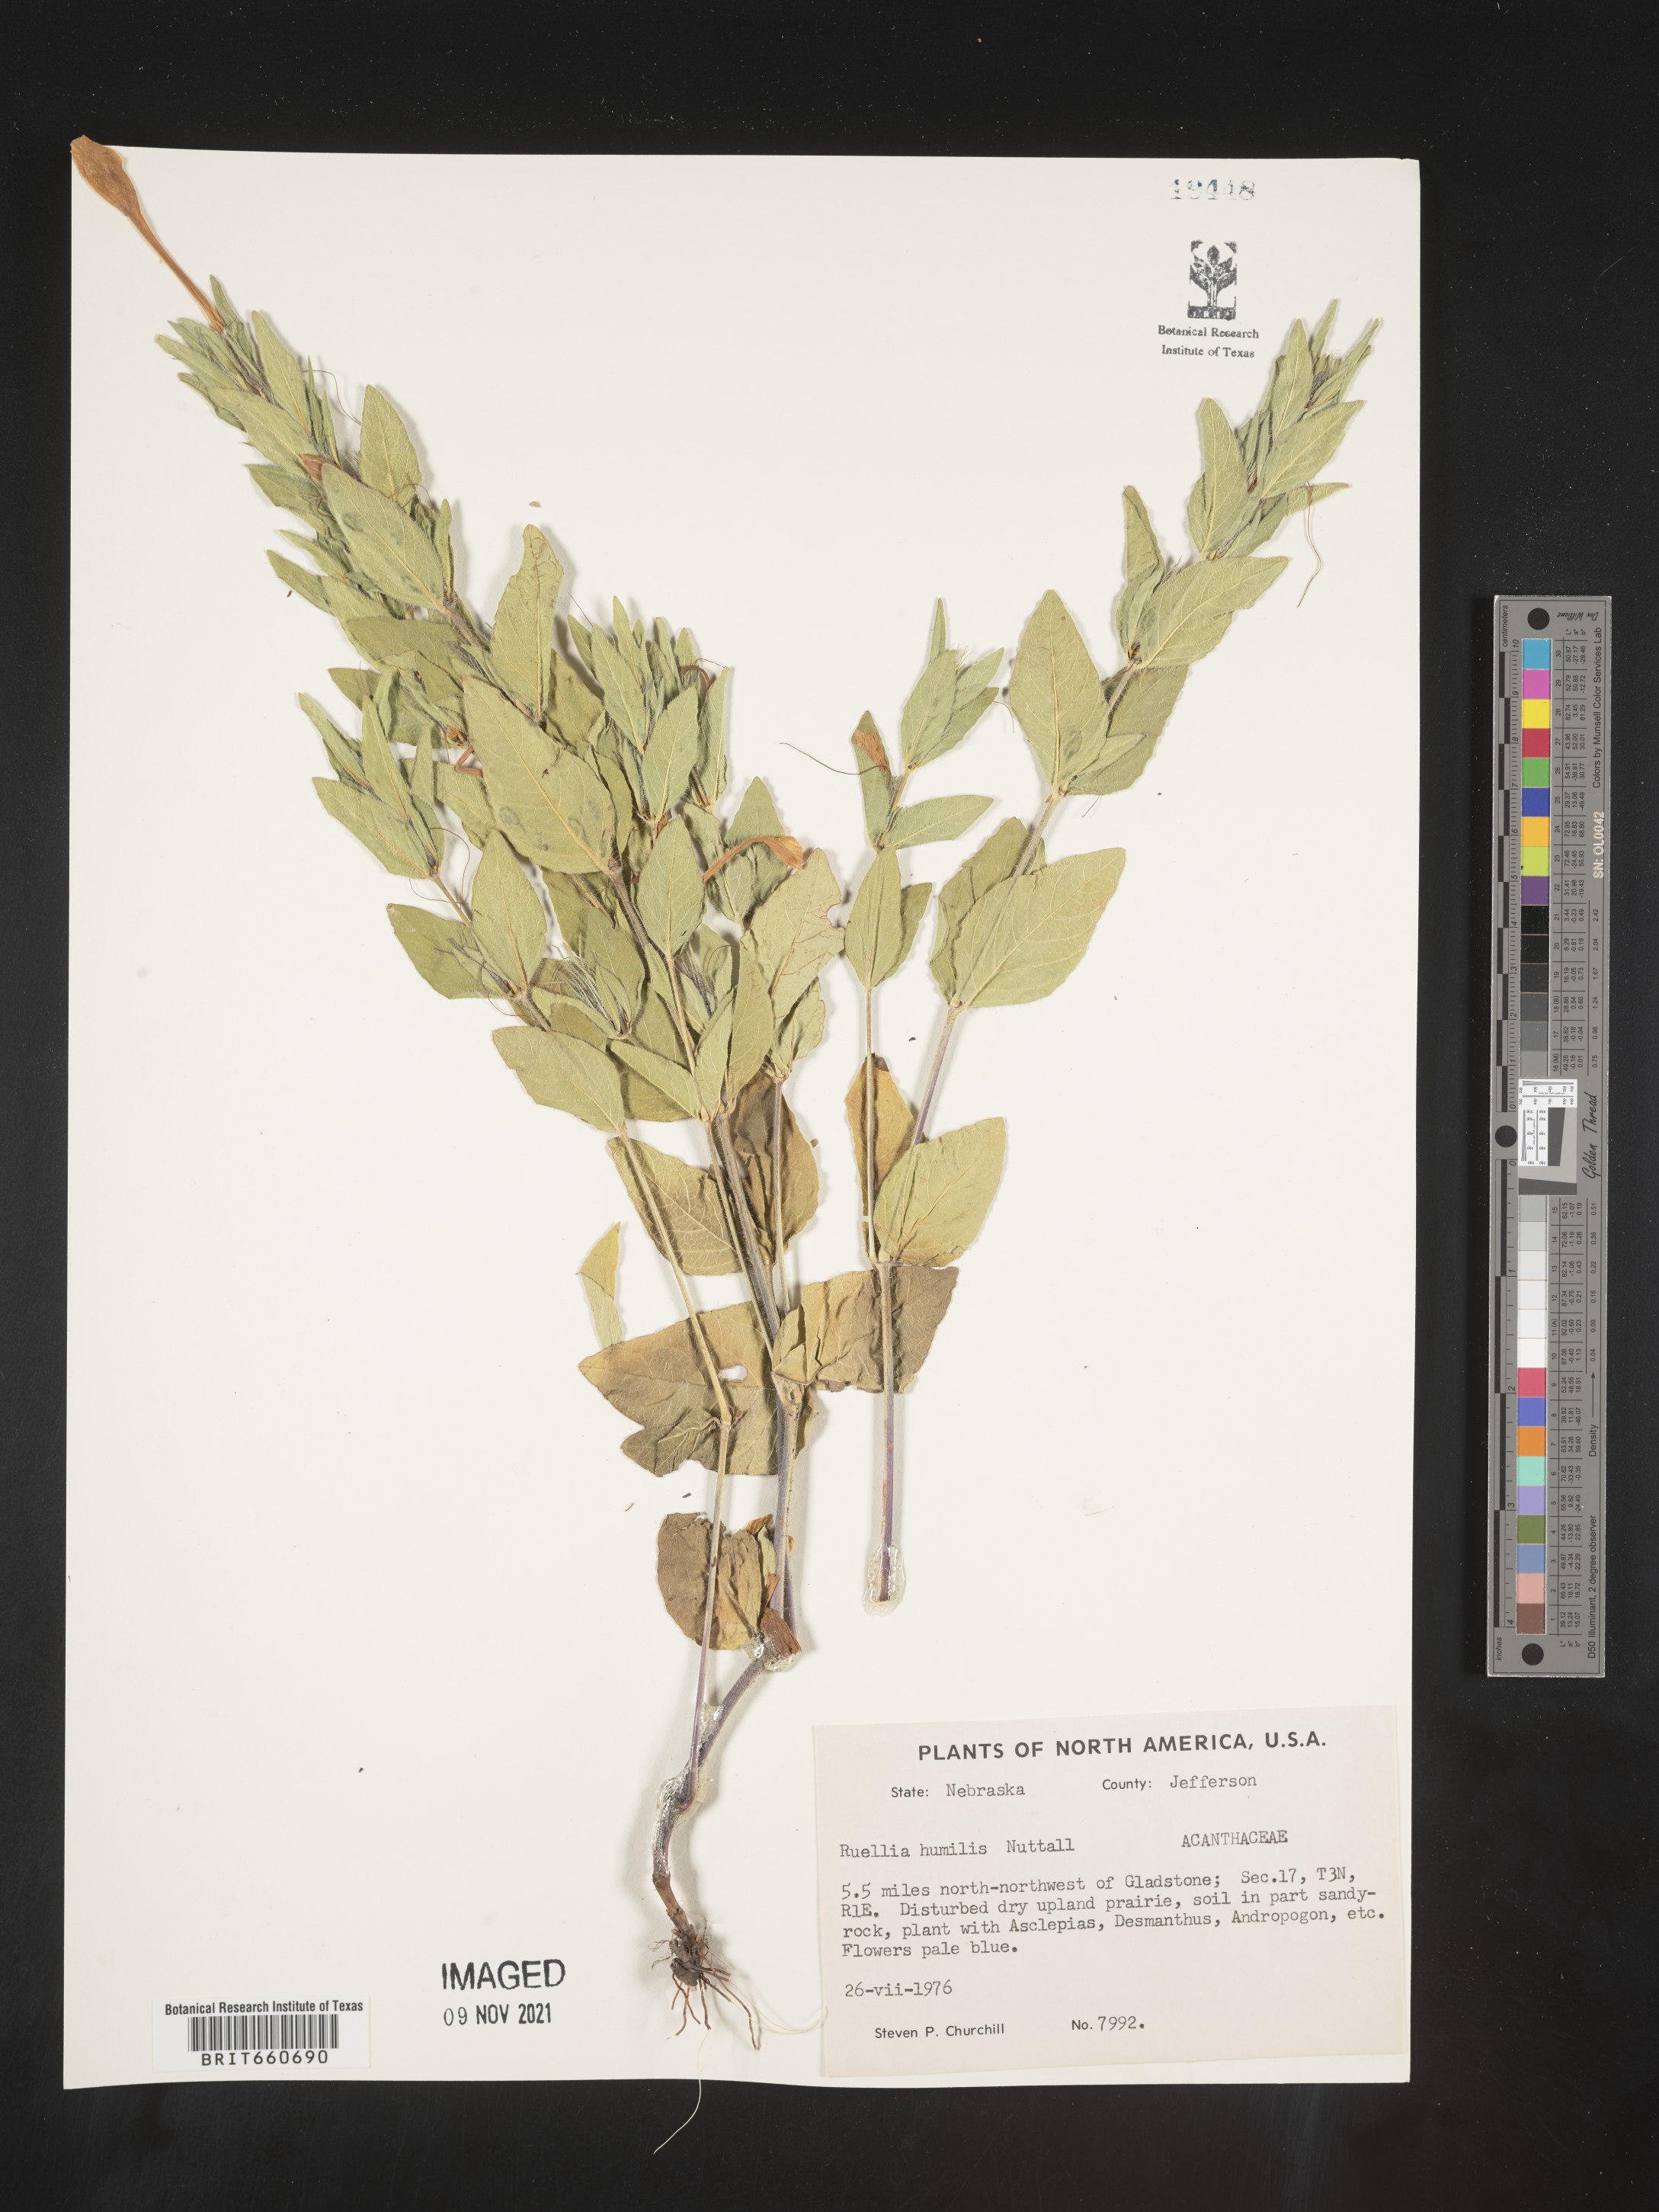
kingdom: Plantae
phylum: Tracheophyta
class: Magnoliopsida
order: Lamiales
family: Acanthaceae
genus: Ruellia
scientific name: Ruellia humilis
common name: Fringe-leaf ruellia
